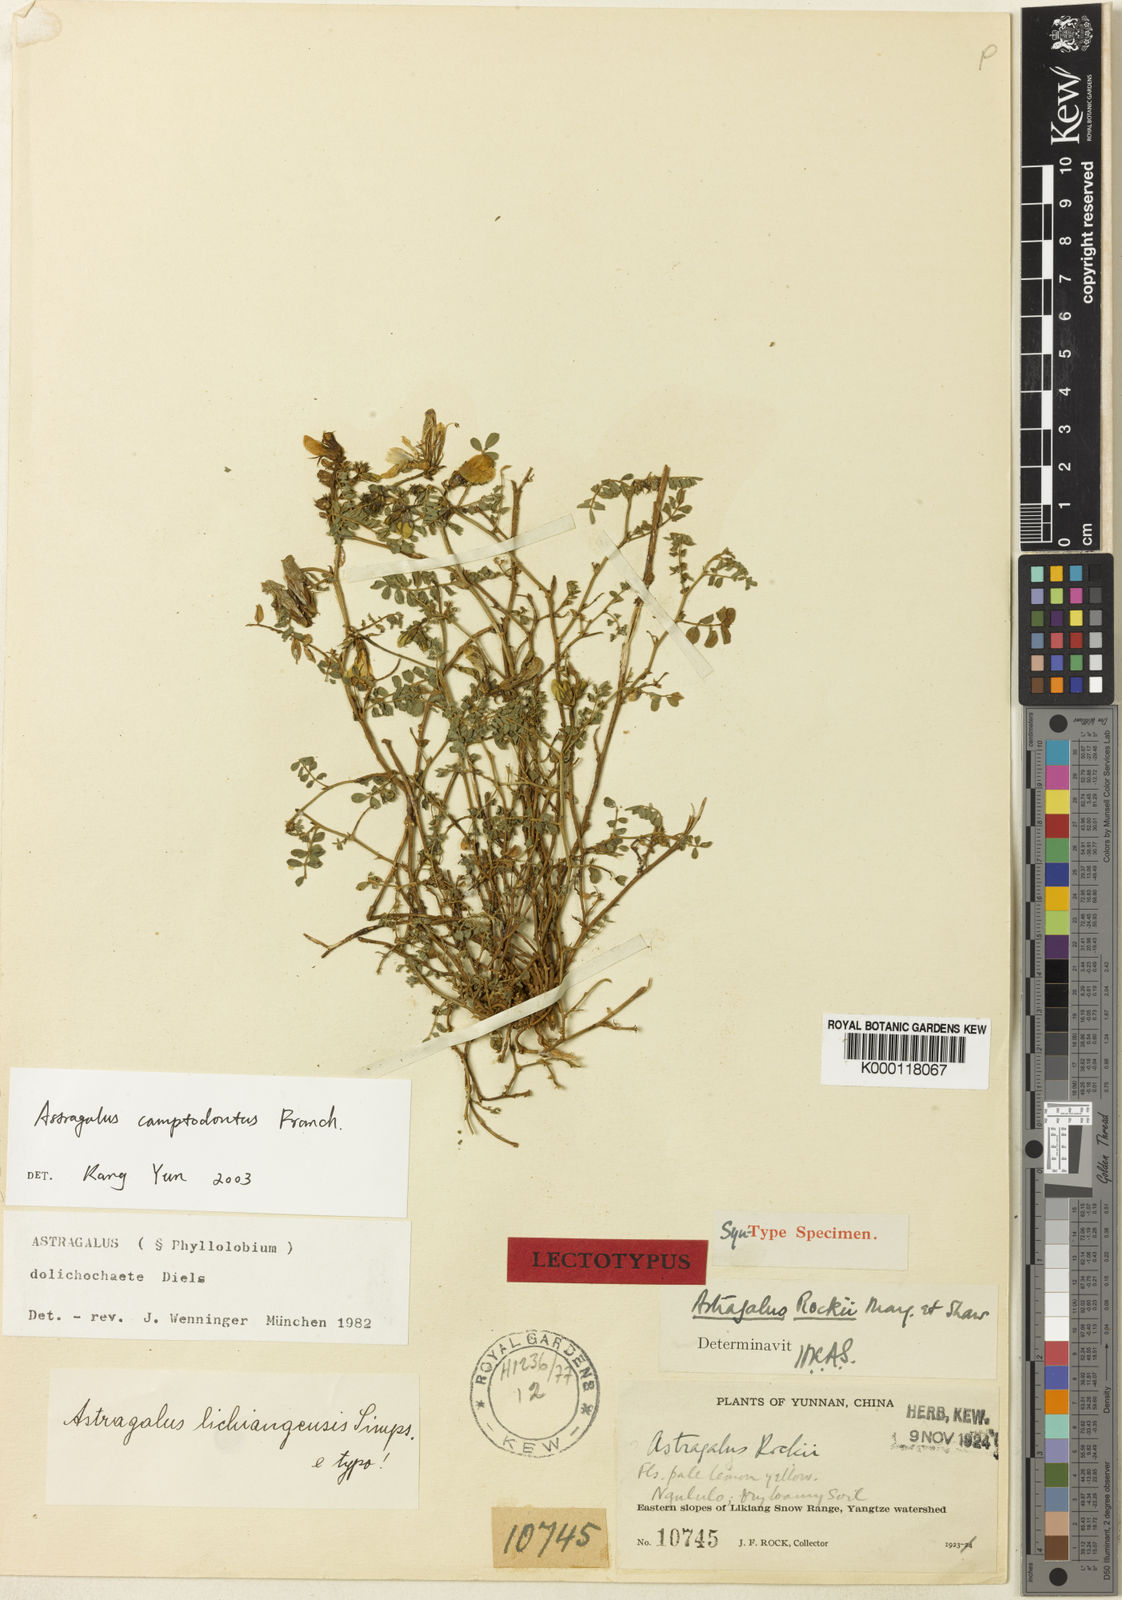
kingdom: Plantae
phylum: Tracheophyta
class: Magnoliopsida
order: Fabales
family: Fabaceae
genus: Astragalus
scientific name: Astragalus
